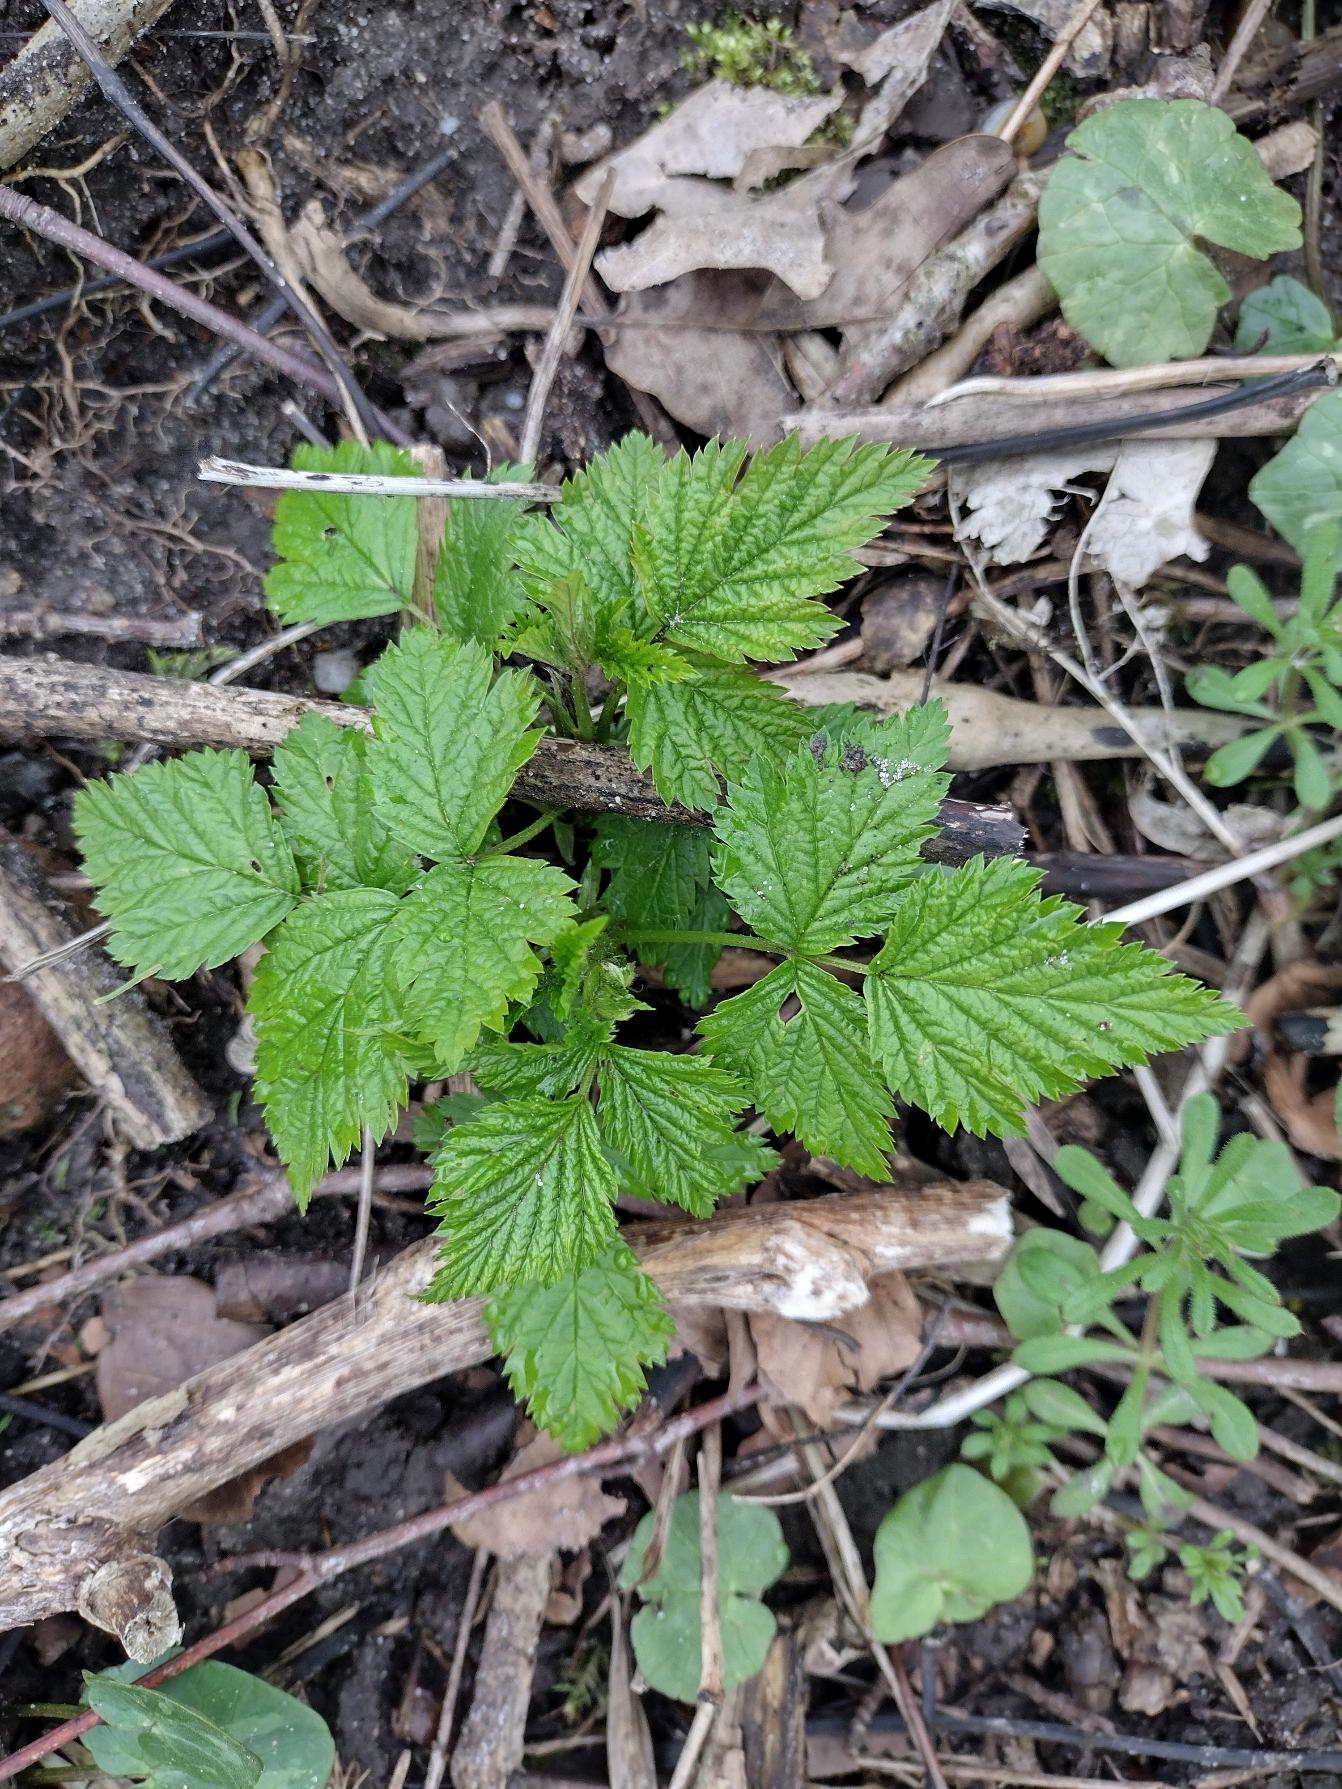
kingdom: Plantae
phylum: Tracheophyta
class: Magnoliopsida
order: Rosales
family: Rosaceae
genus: Rubus
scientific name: Rubus spectabilis
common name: Laksebær
